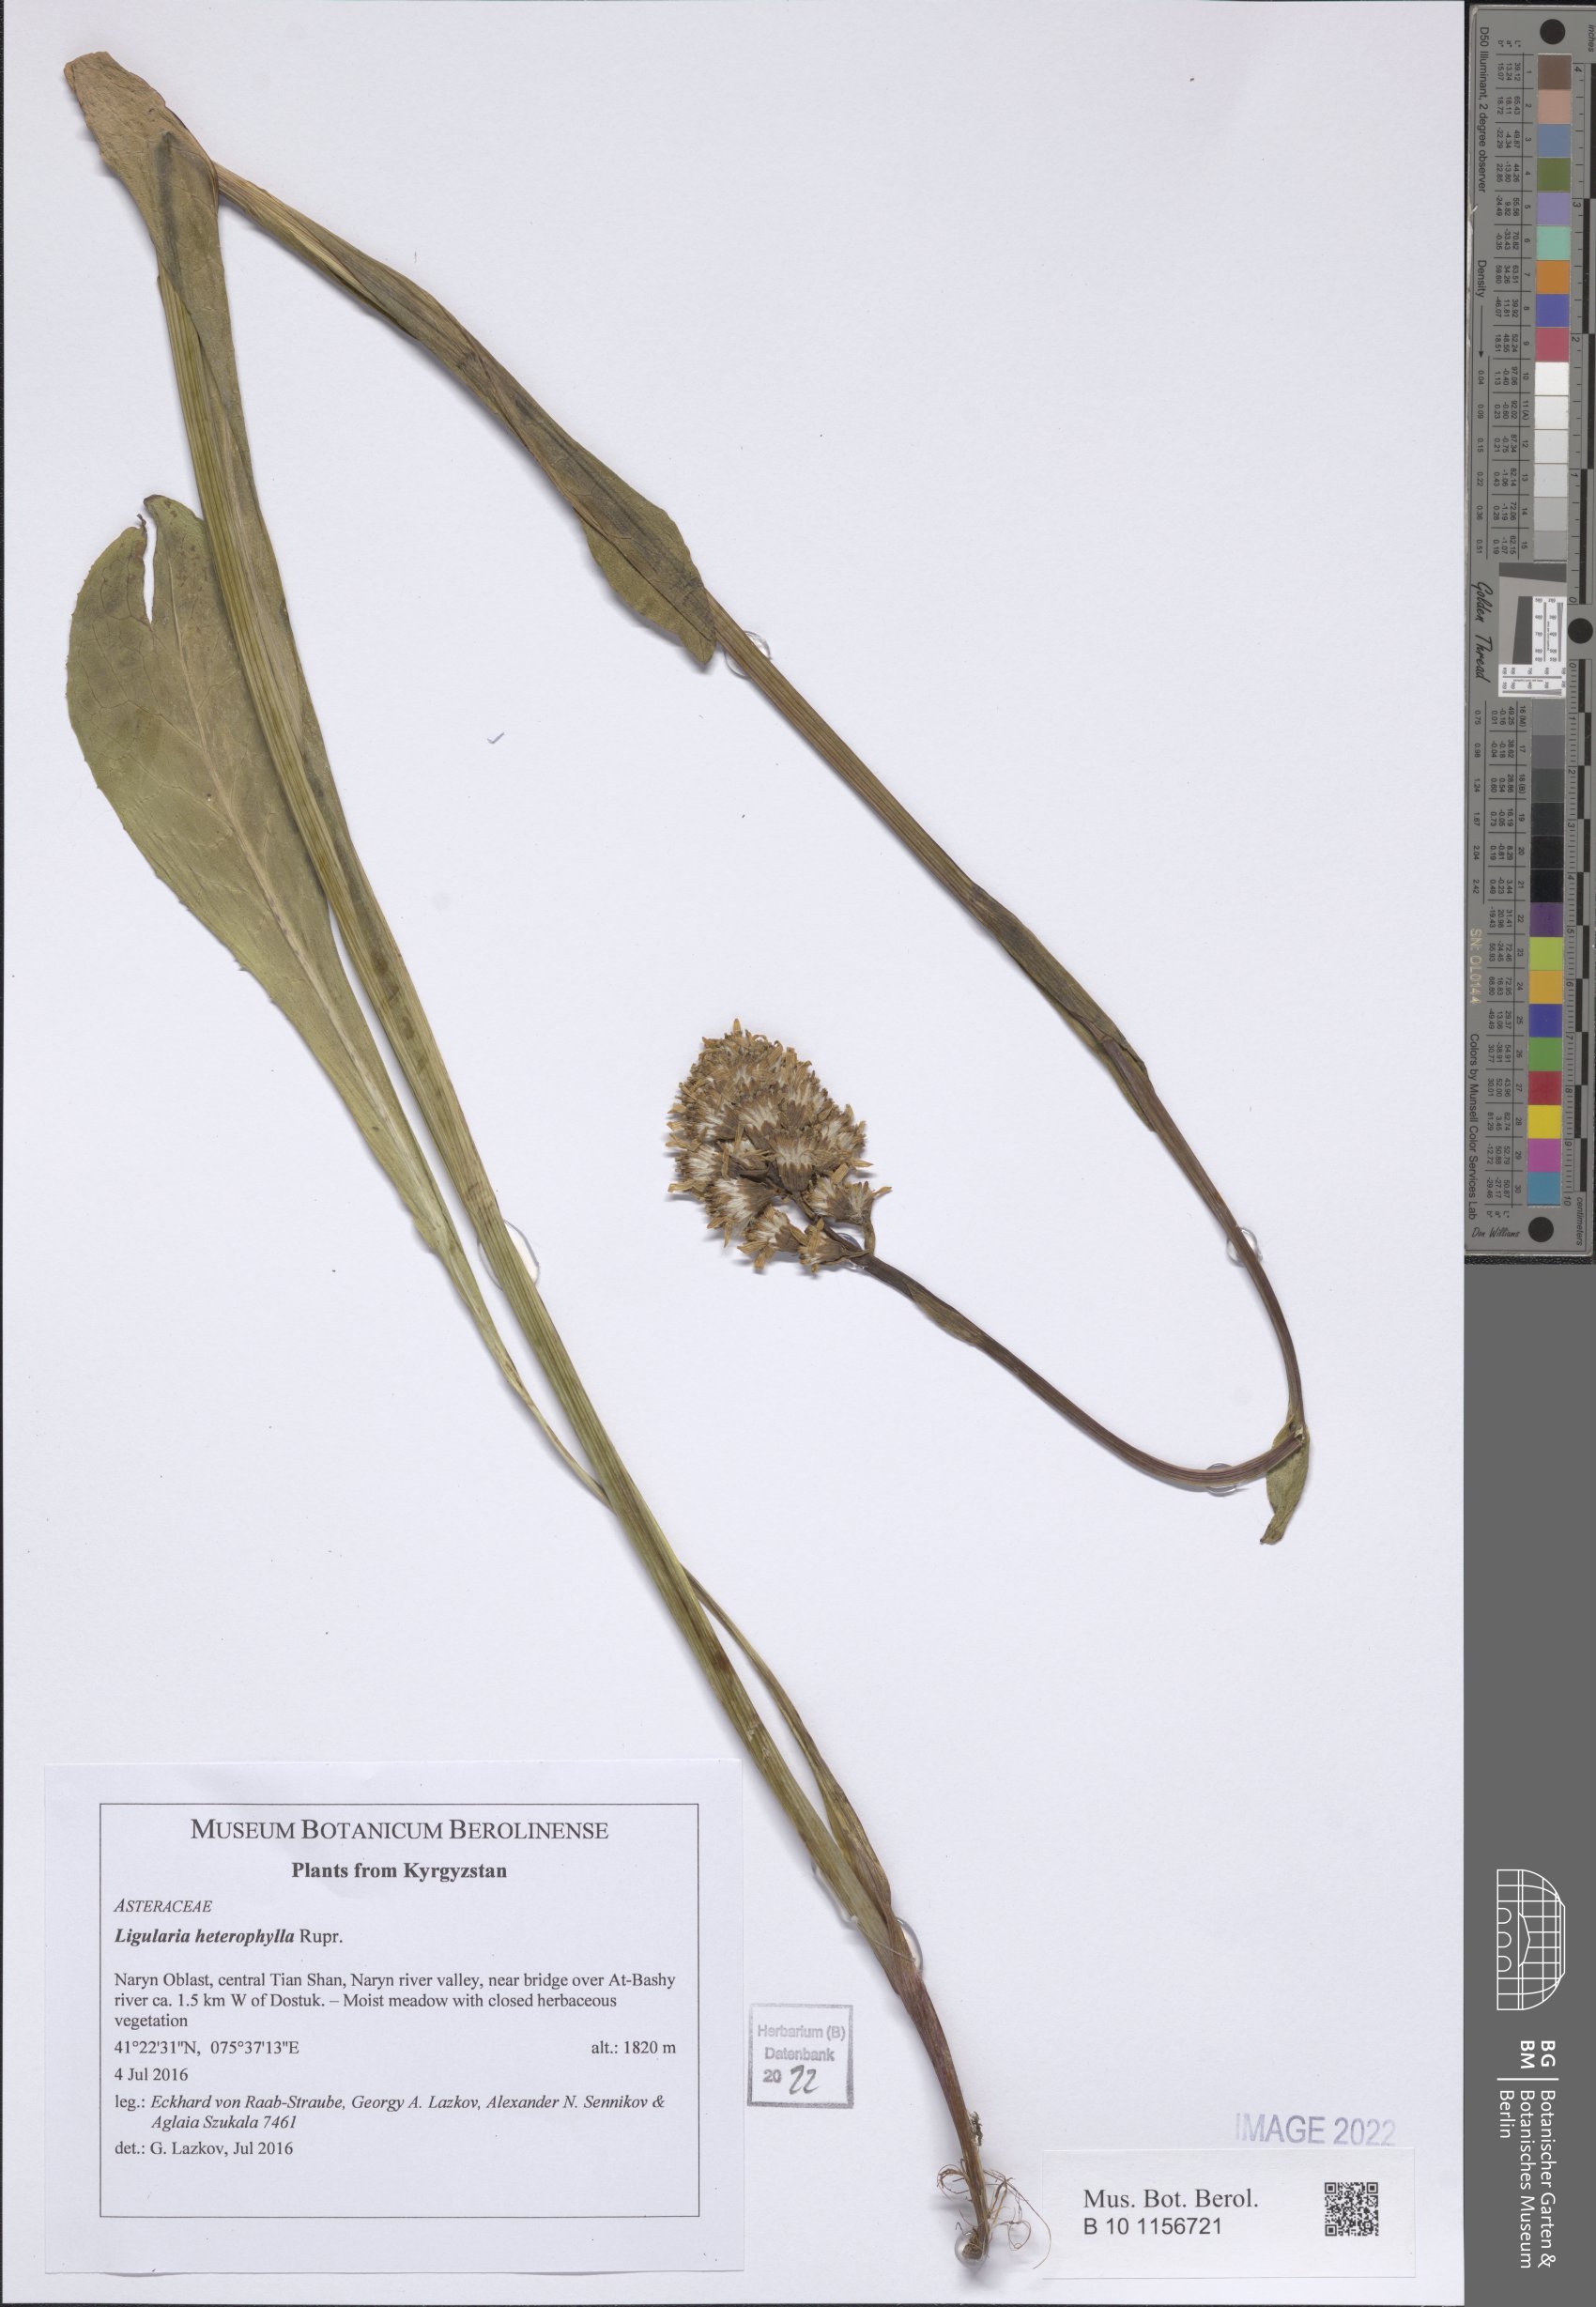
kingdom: Plantae
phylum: Tracheophyta
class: Magnoliopsida
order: Asterales
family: Asteraceae
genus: Ligularia
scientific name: Ligularia heterophylla
